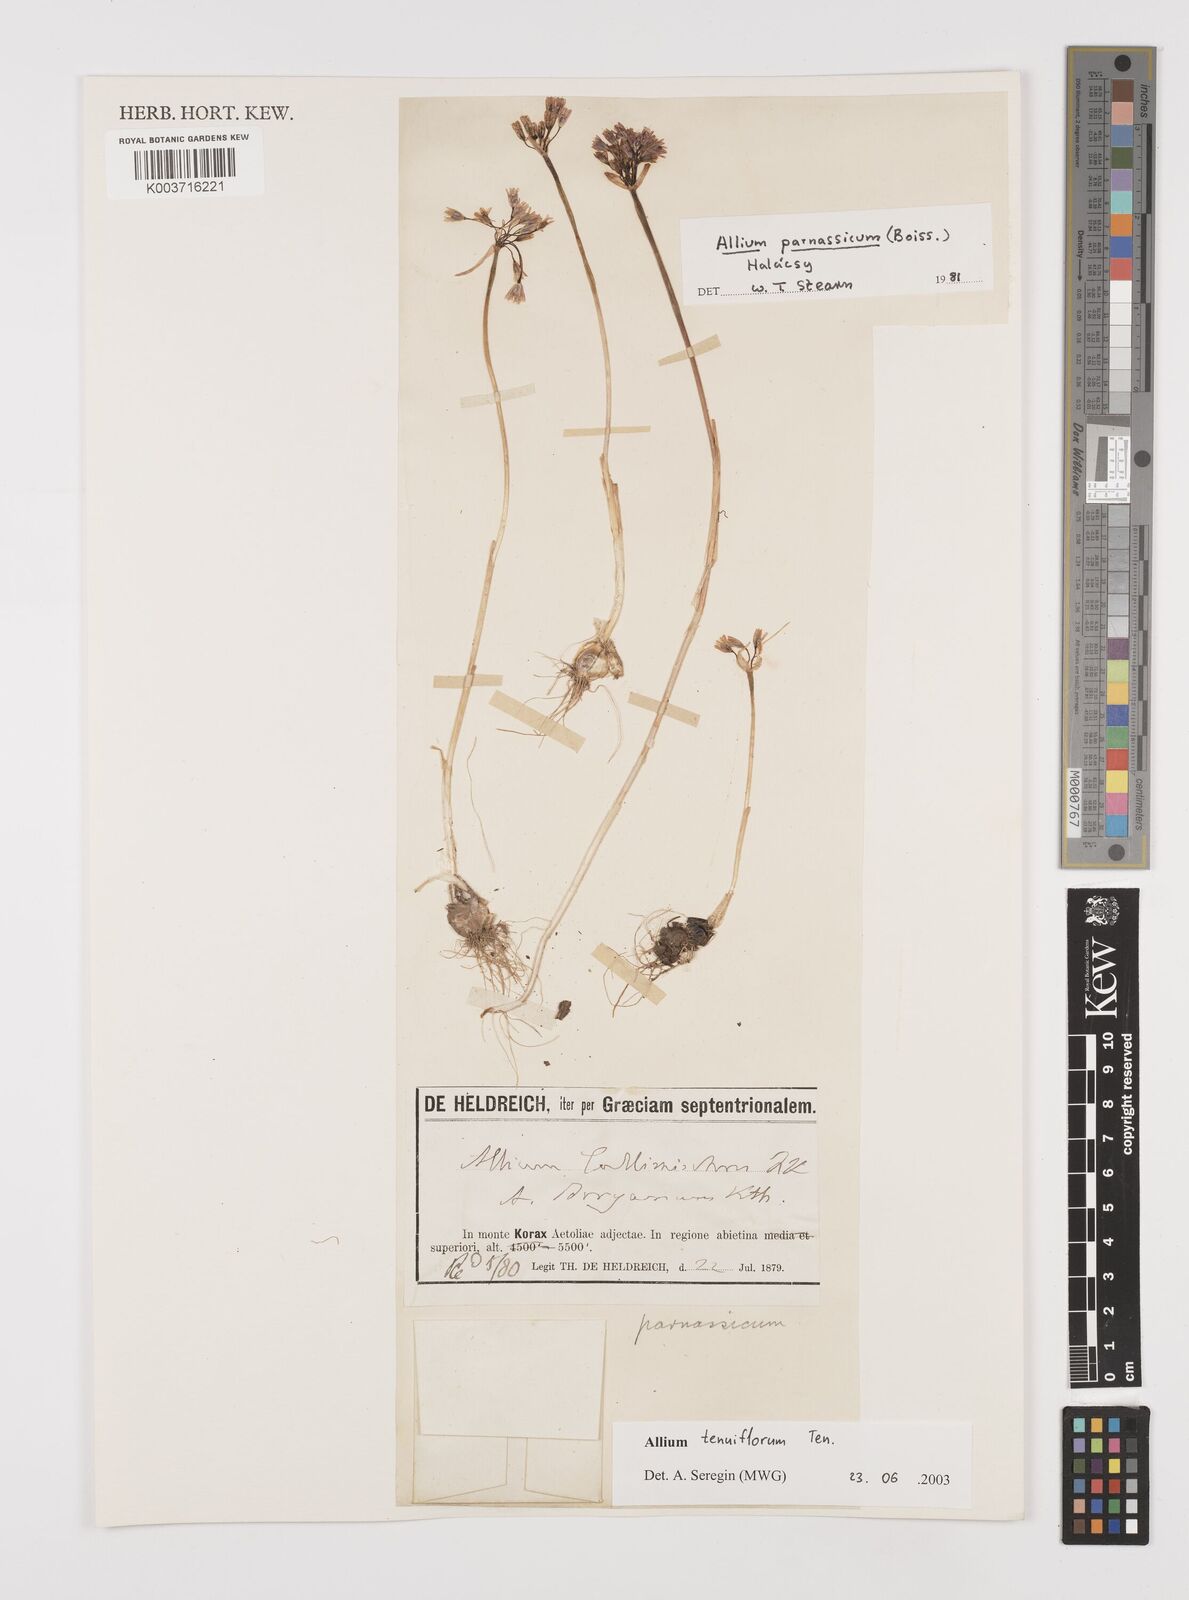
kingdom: Plantae
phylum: Tracheophyta
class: Liliopsida
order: Asparagales
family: Amaryllidaceae
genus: Allium
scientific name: Allium tenuiflorum
